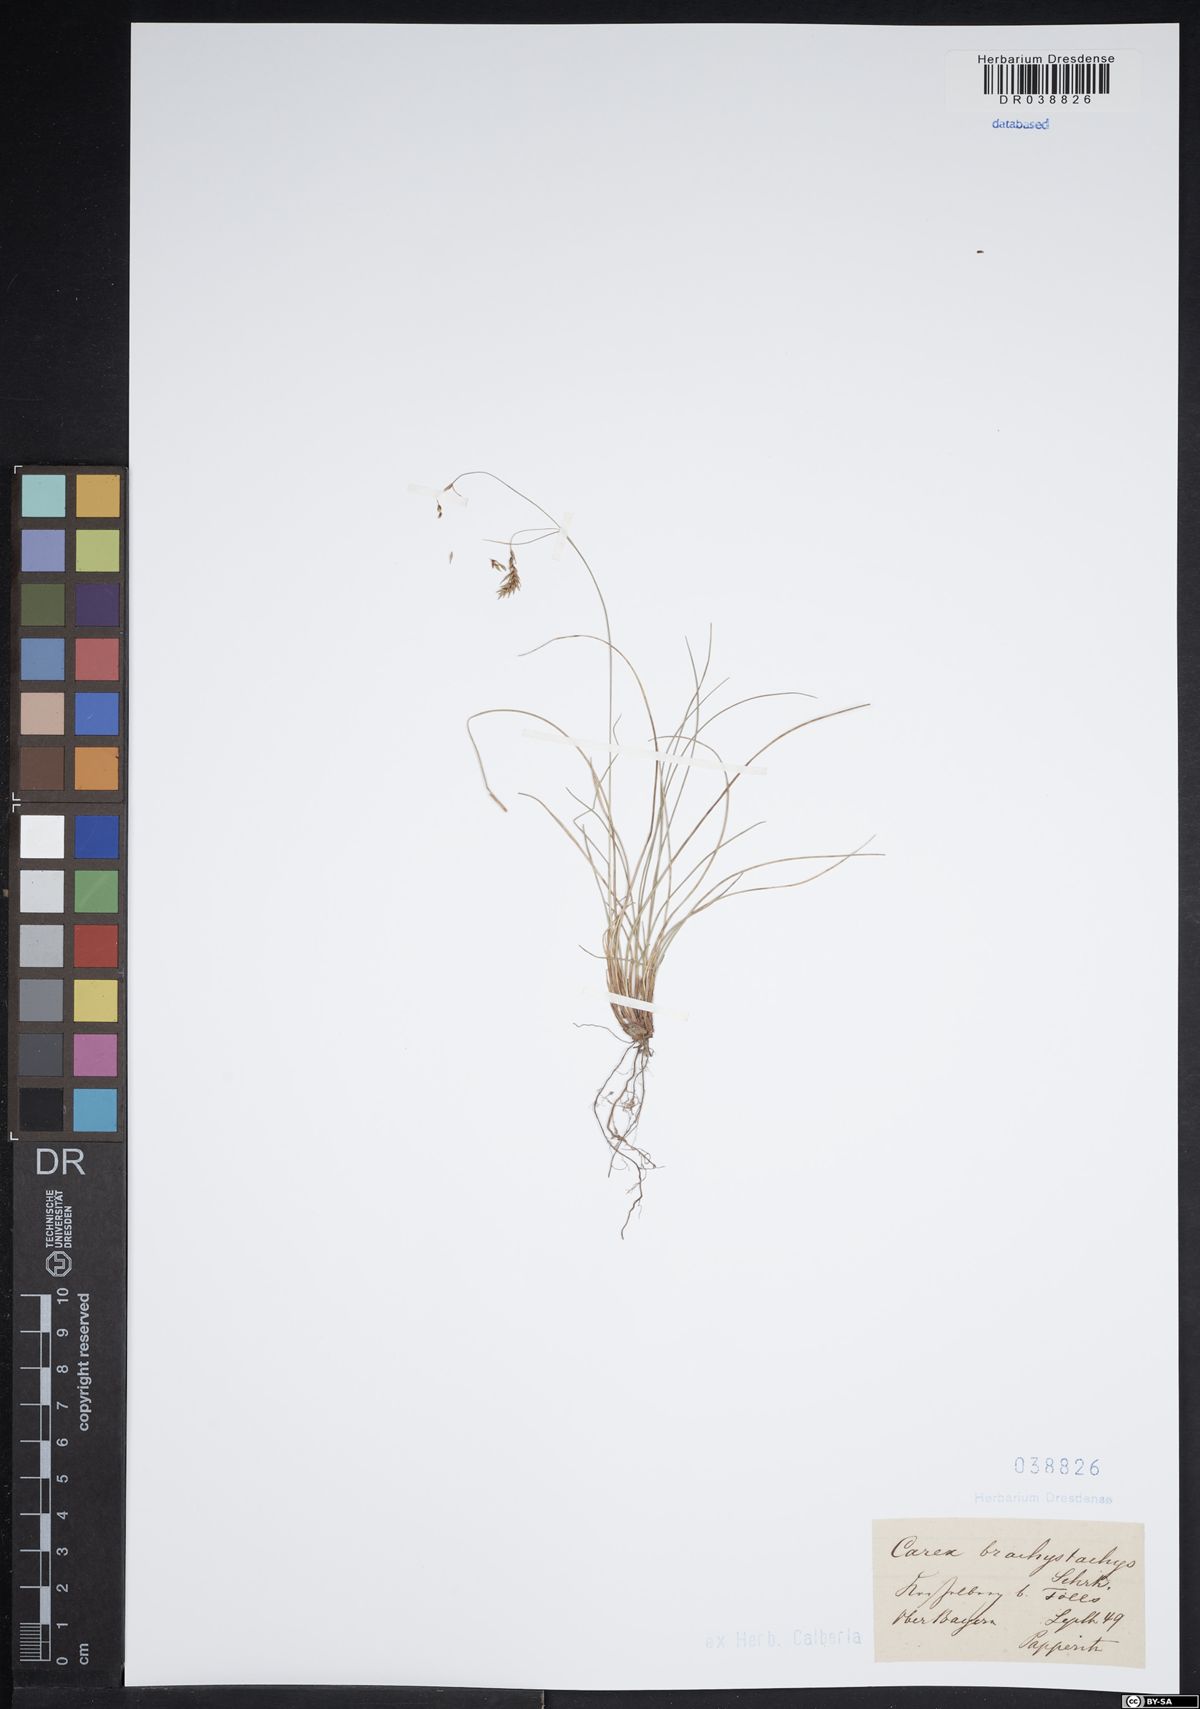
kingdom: Plantae
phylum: Tracheophyta
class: Liliopsida
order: Poales
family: Cyperaceae
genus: Carex
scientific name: Carex brachystachys
